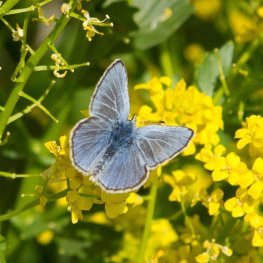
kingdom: Animalia
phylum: Arthropoda
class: Insecta
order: Lepidoptera
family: Lycaenidae
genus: Glaucopsyche
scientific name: Glaucopsyche lygdamus
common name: Silvery Blue
